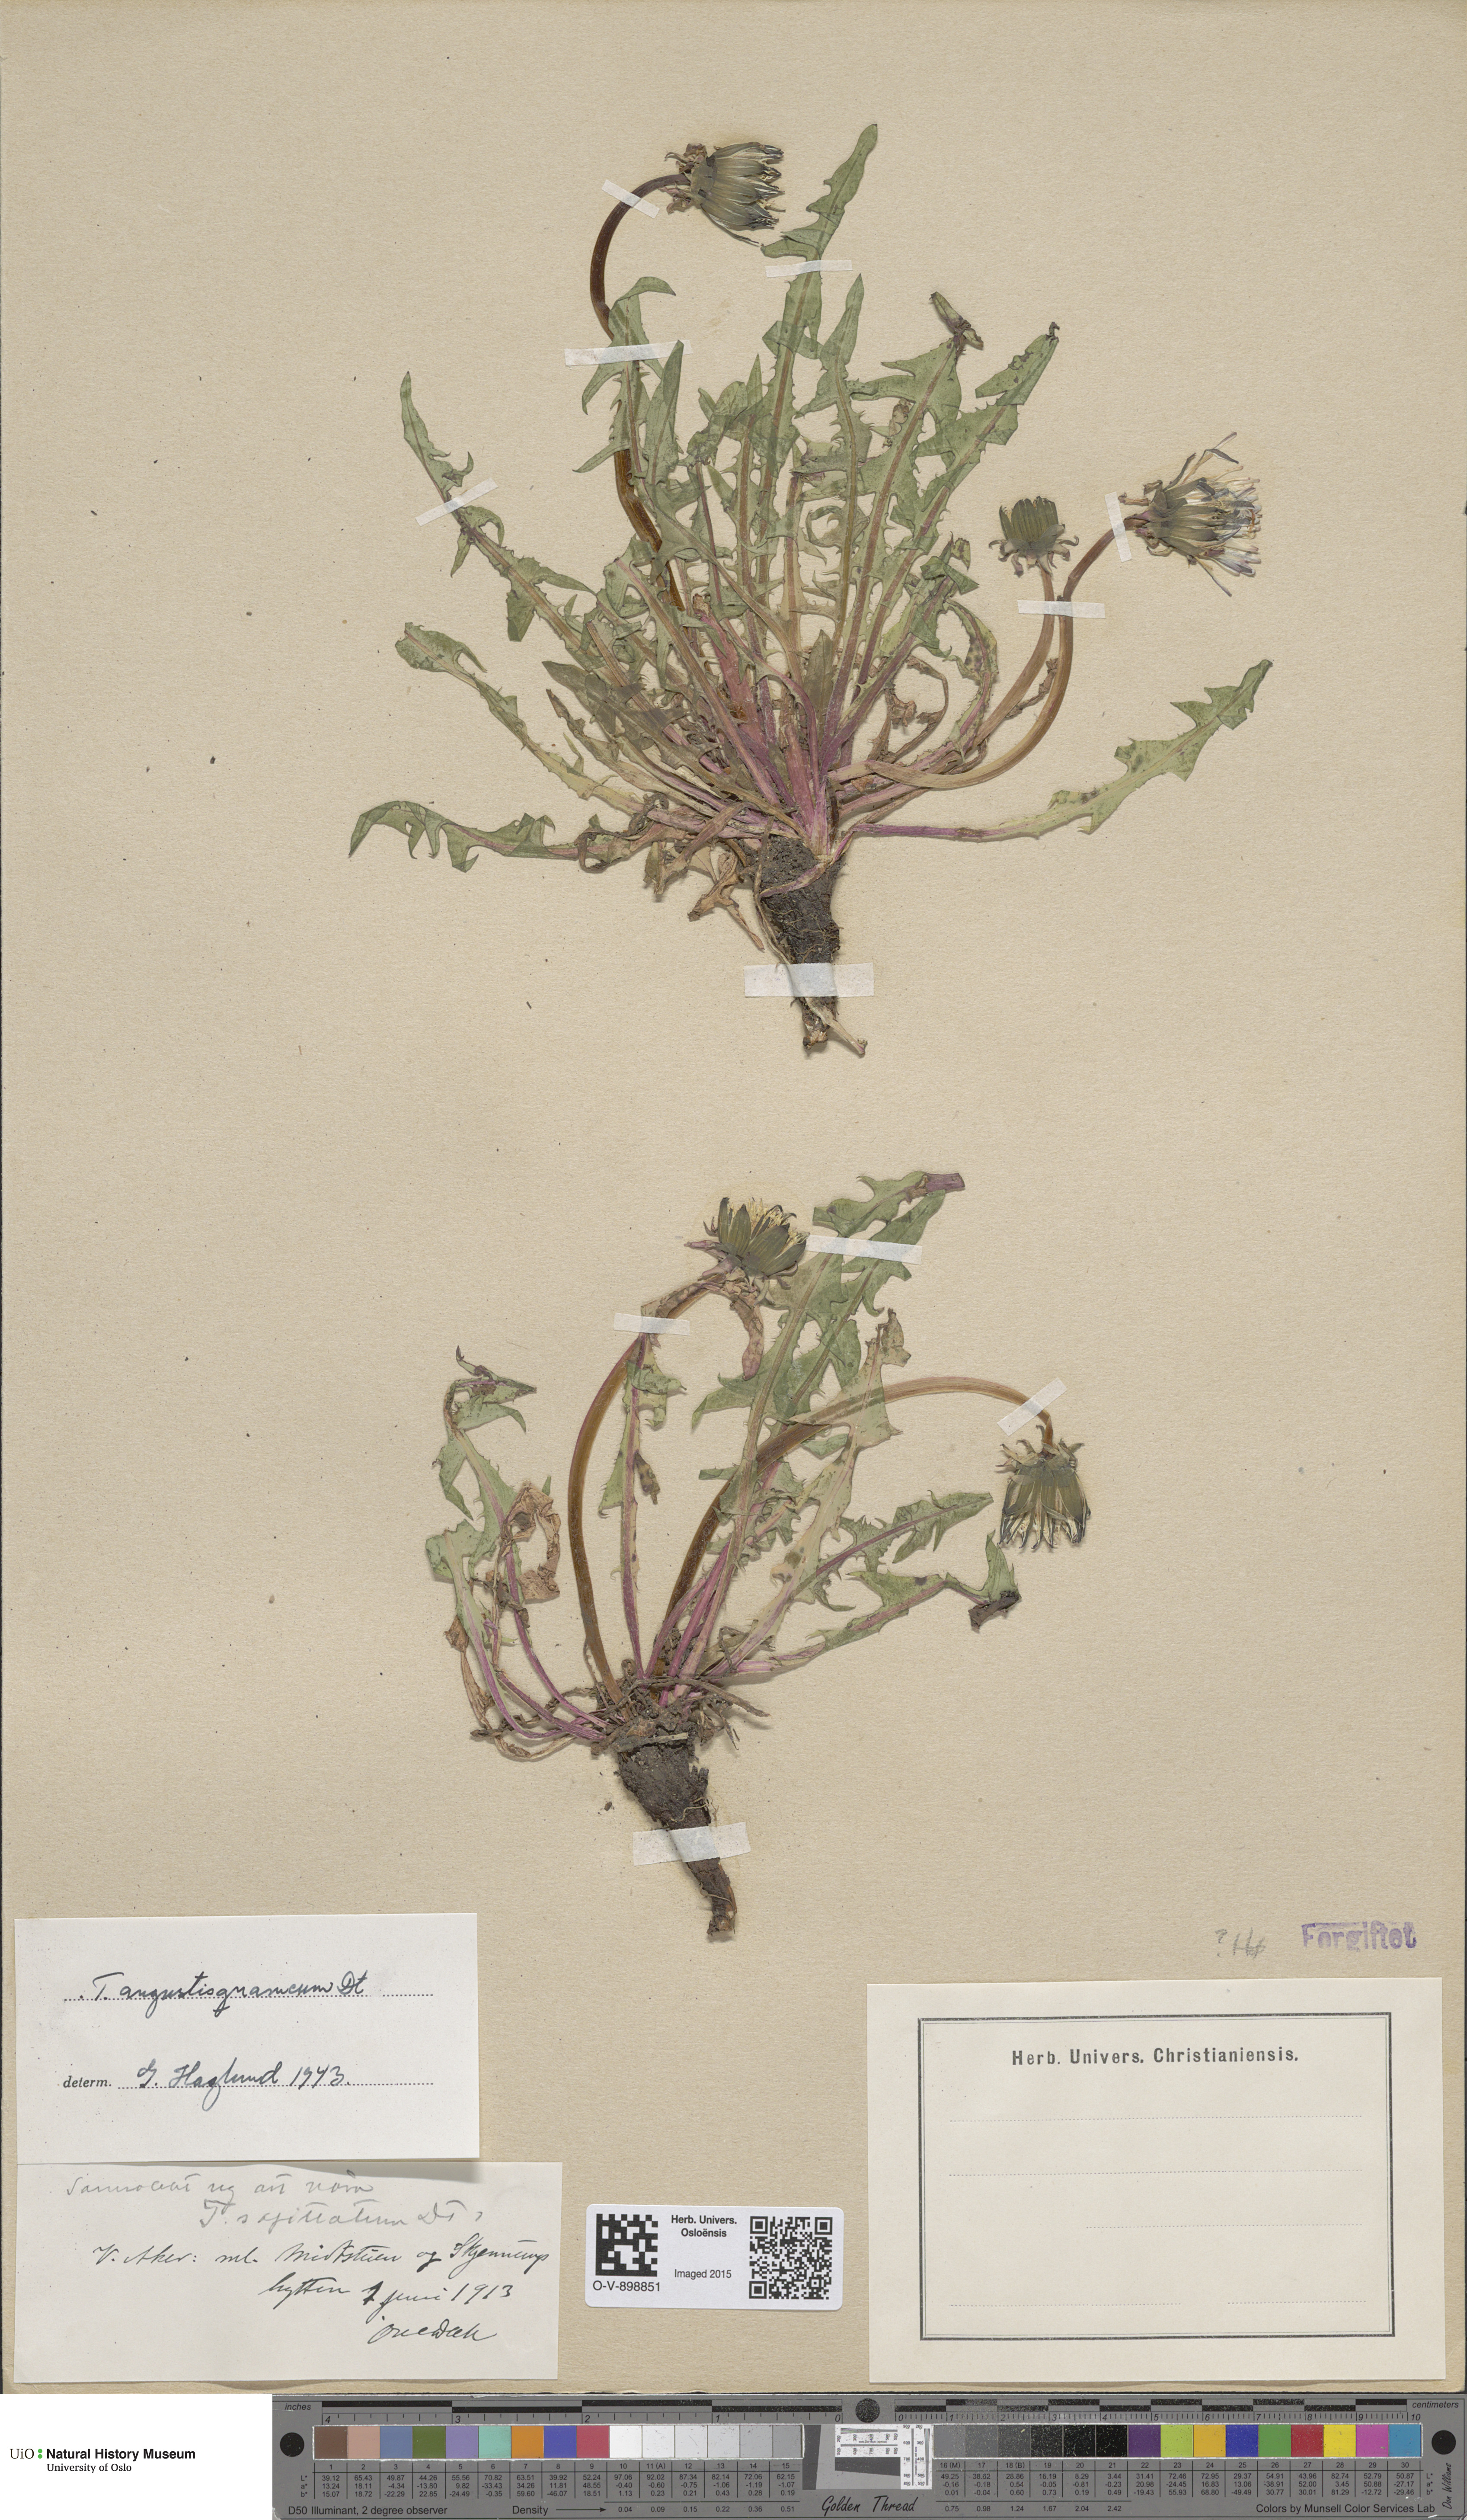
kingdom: Plantae
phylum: Tracheophyta
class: Magnoliopsida
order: Asterales
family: Asteraceae
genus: Taraxacum
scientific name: Taraxacum angustisquameum
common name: Multilobed dandelion
